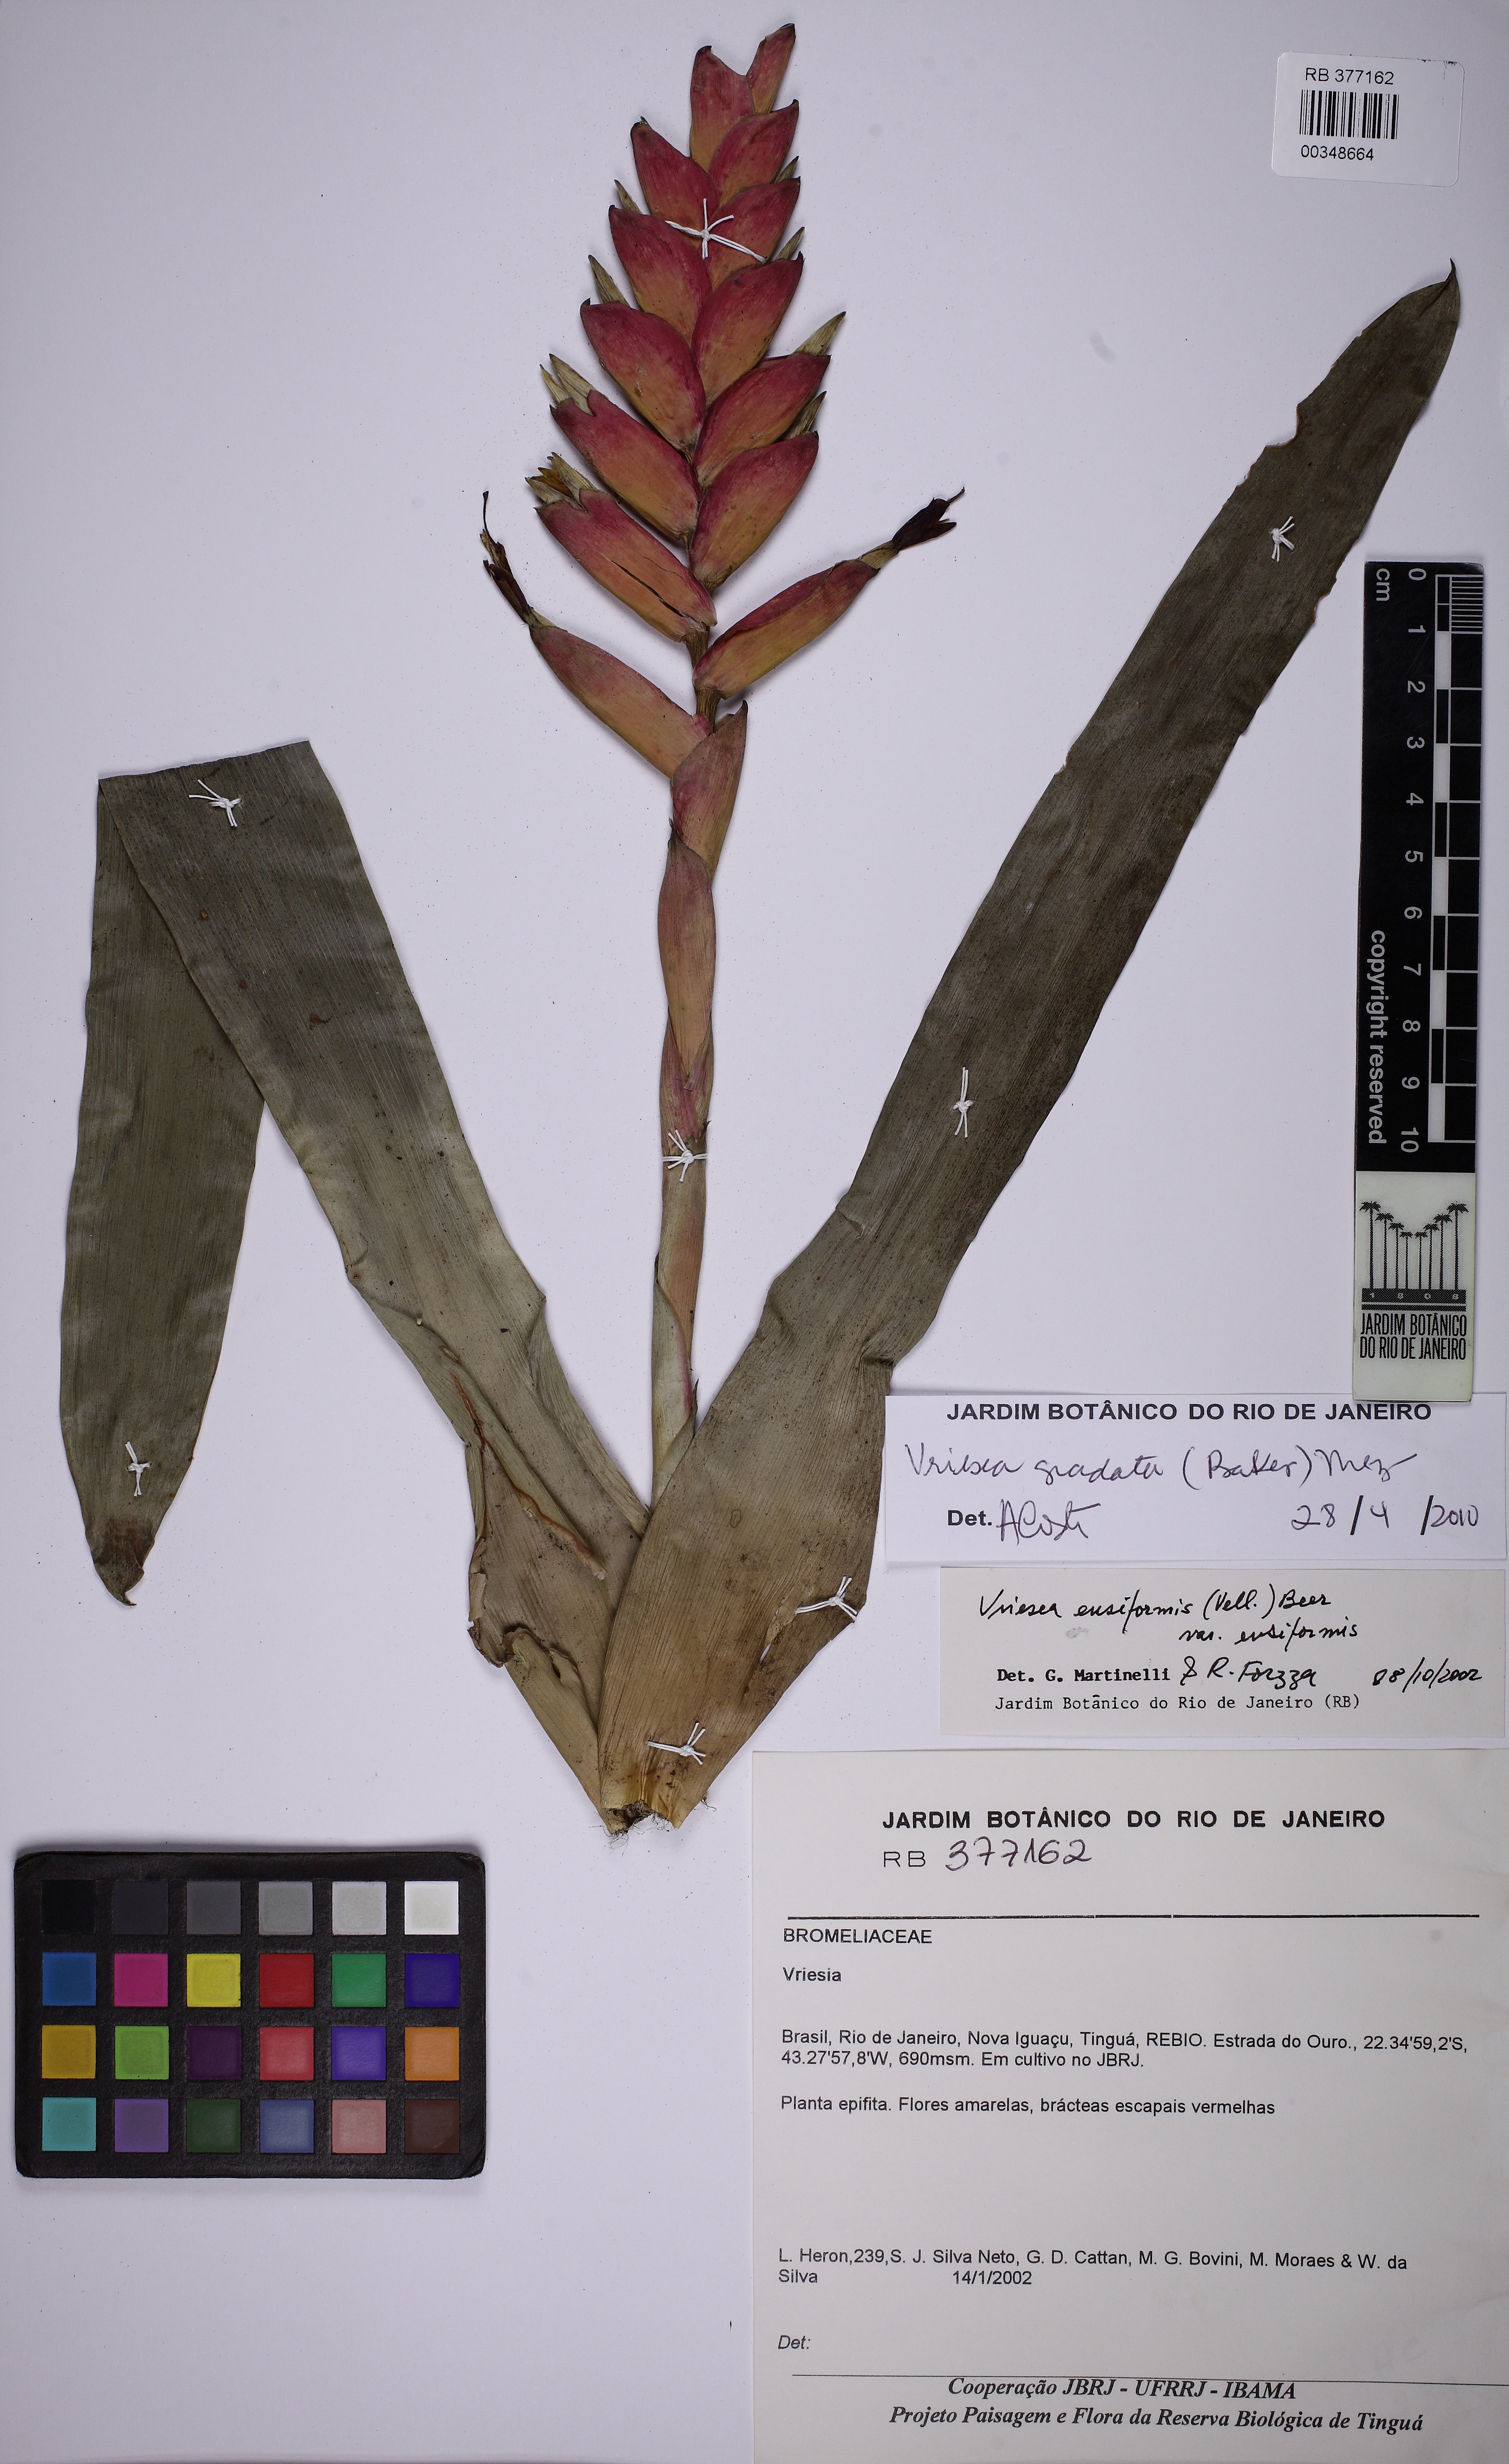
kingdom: Plantae
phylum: Tracheophyta
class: Liliopsida
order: Poales
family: Bromeliaceae
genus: Vriesea
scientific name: Vriesea gradata
